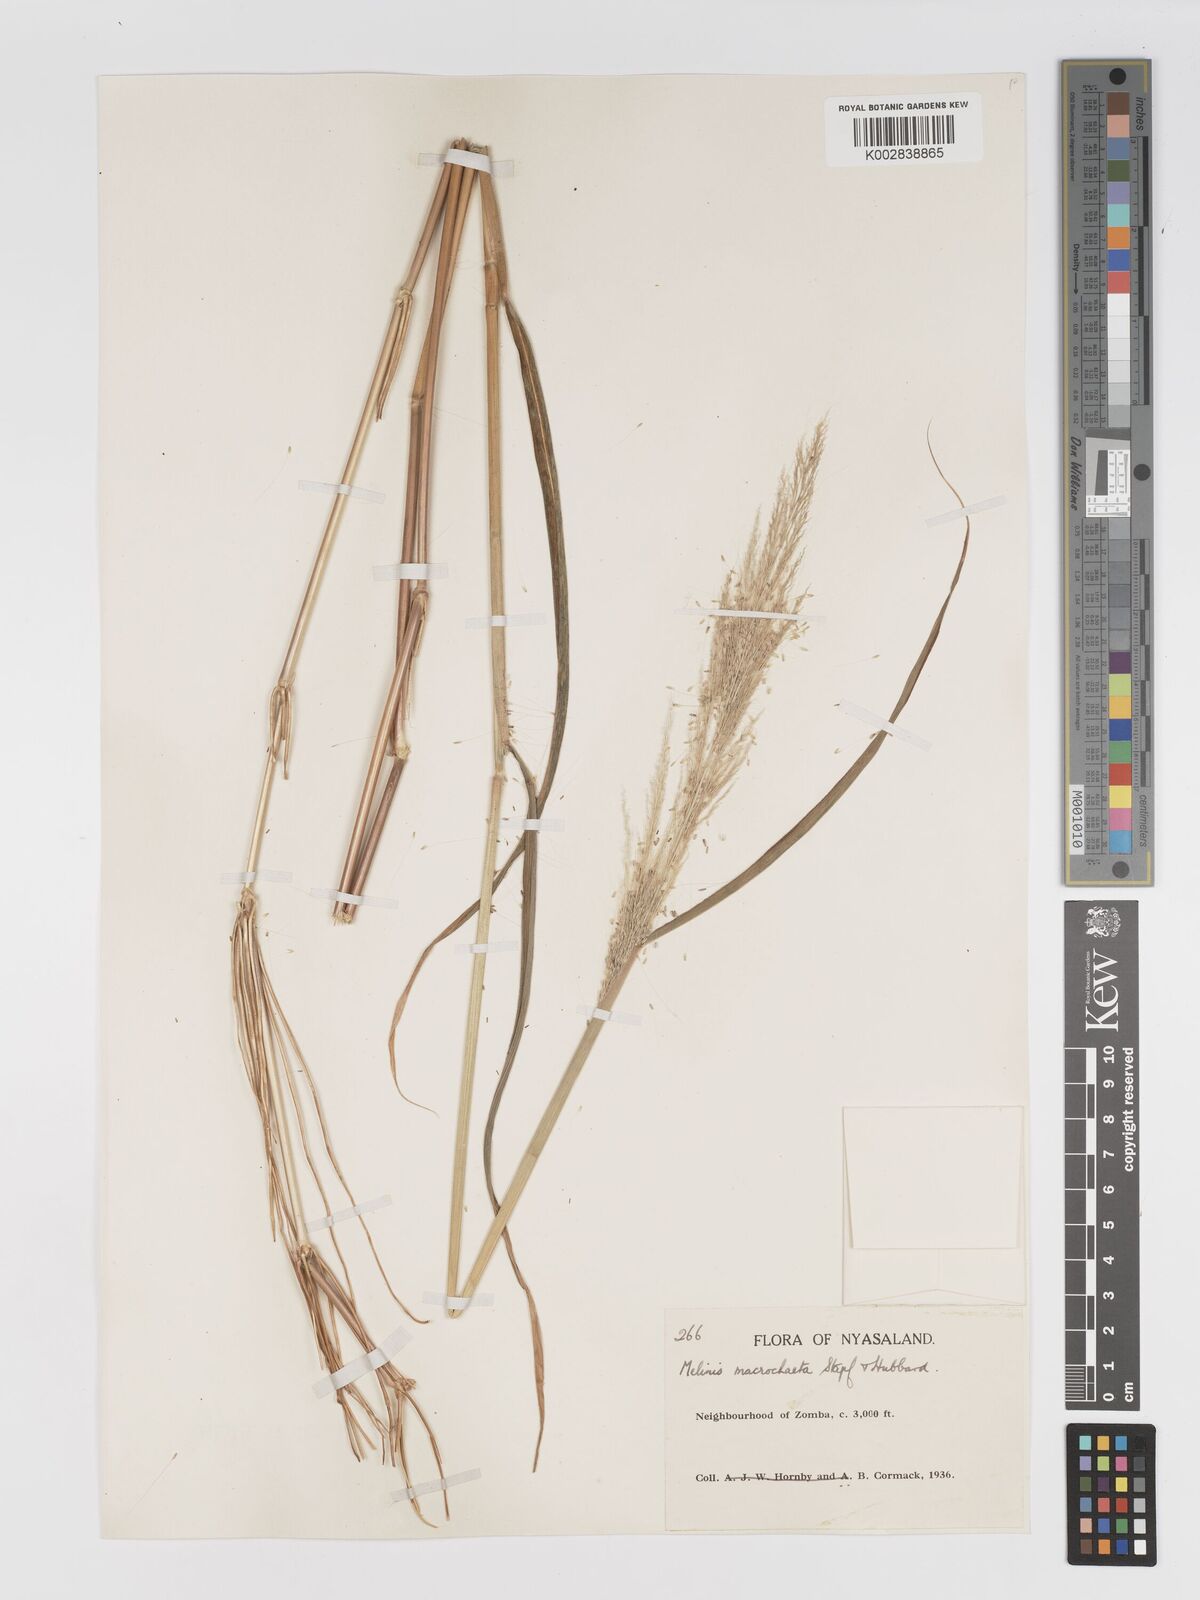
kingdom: Plantae
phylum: Tracheophyta
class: Liliopsida
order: Poales
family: Poaceae
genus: Melinis
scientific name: Melinis macrochaeta
